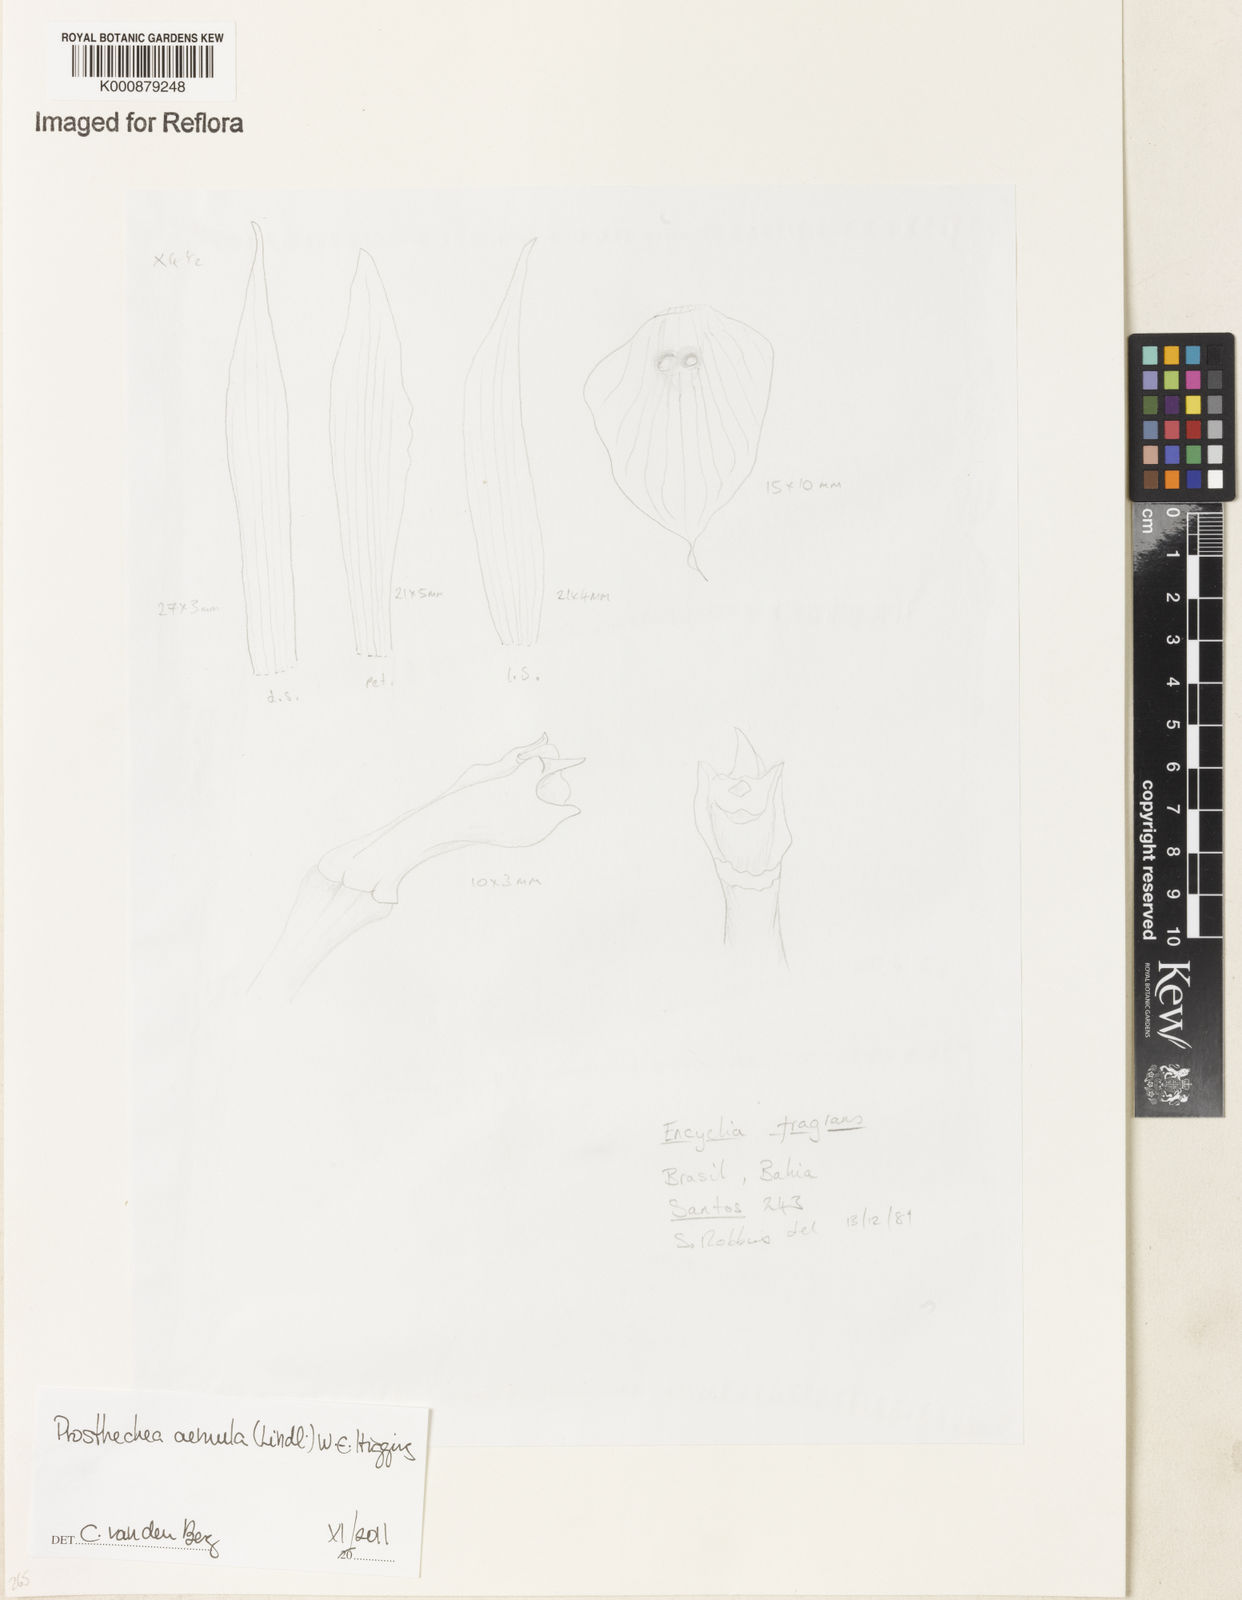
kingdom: Plantae
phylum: Tracheophyta
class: Liliopsida
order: Asparagales
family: Orchidaceae
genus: Prosthechea
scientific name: Prosthechea aemula
